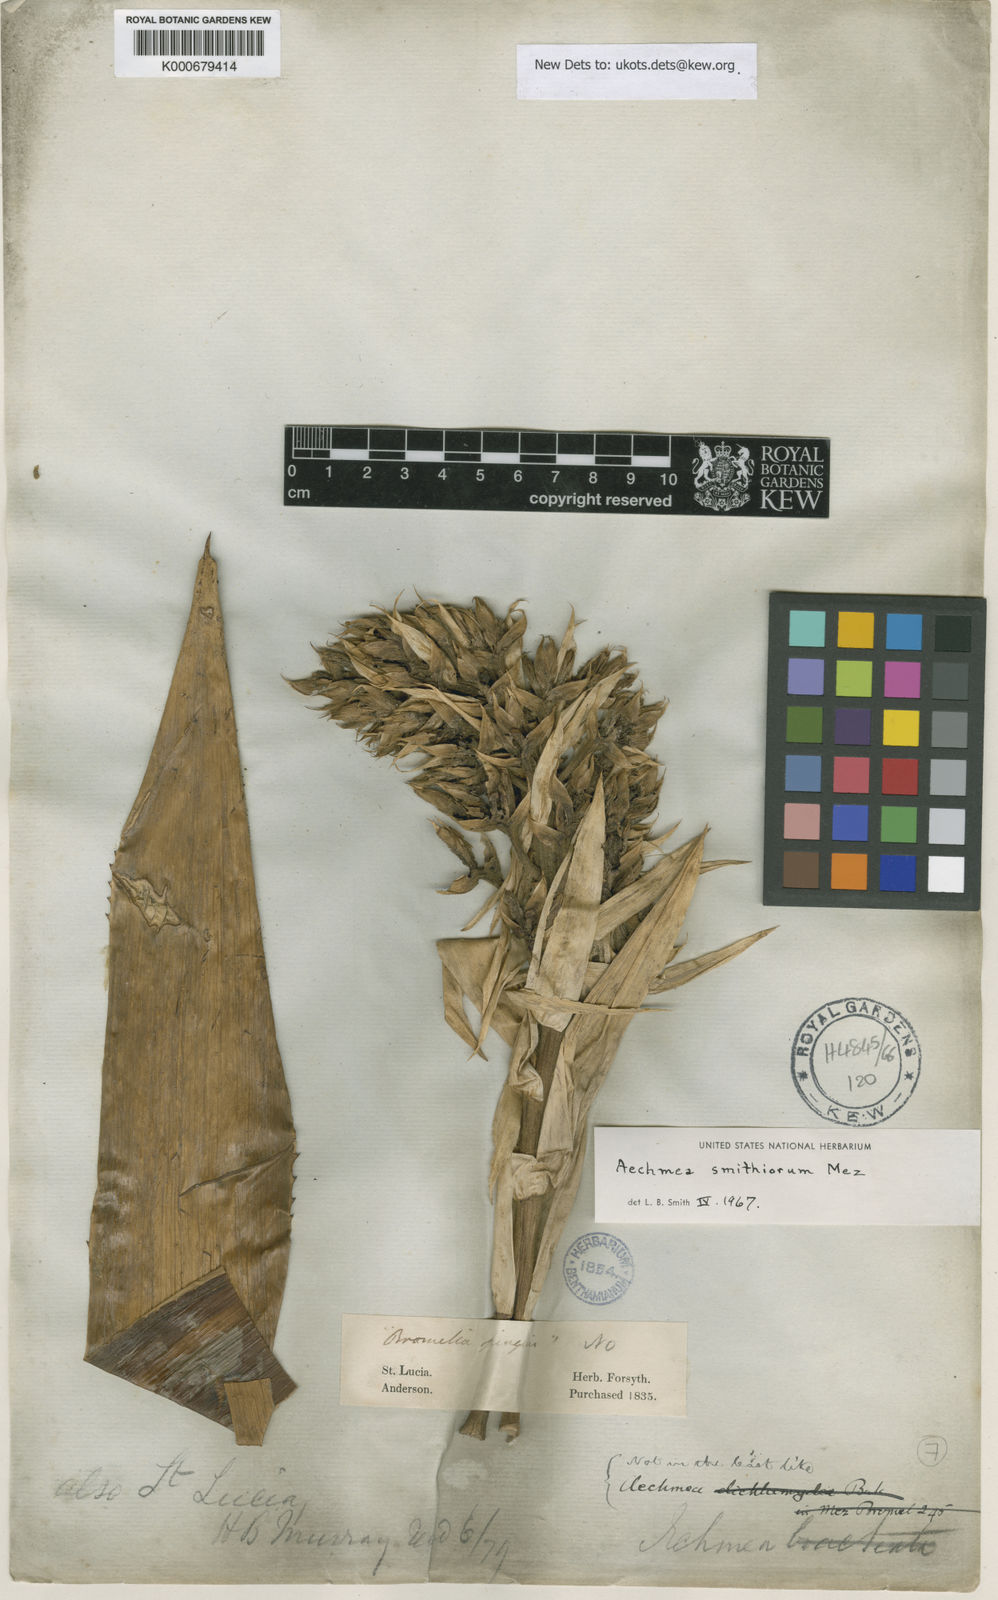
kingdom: Plantae
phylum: Tracheophyta
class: Liliopsida
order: Poales
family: Bromeliaceae
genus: Aechmea
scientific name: Aechmea smithiorum
